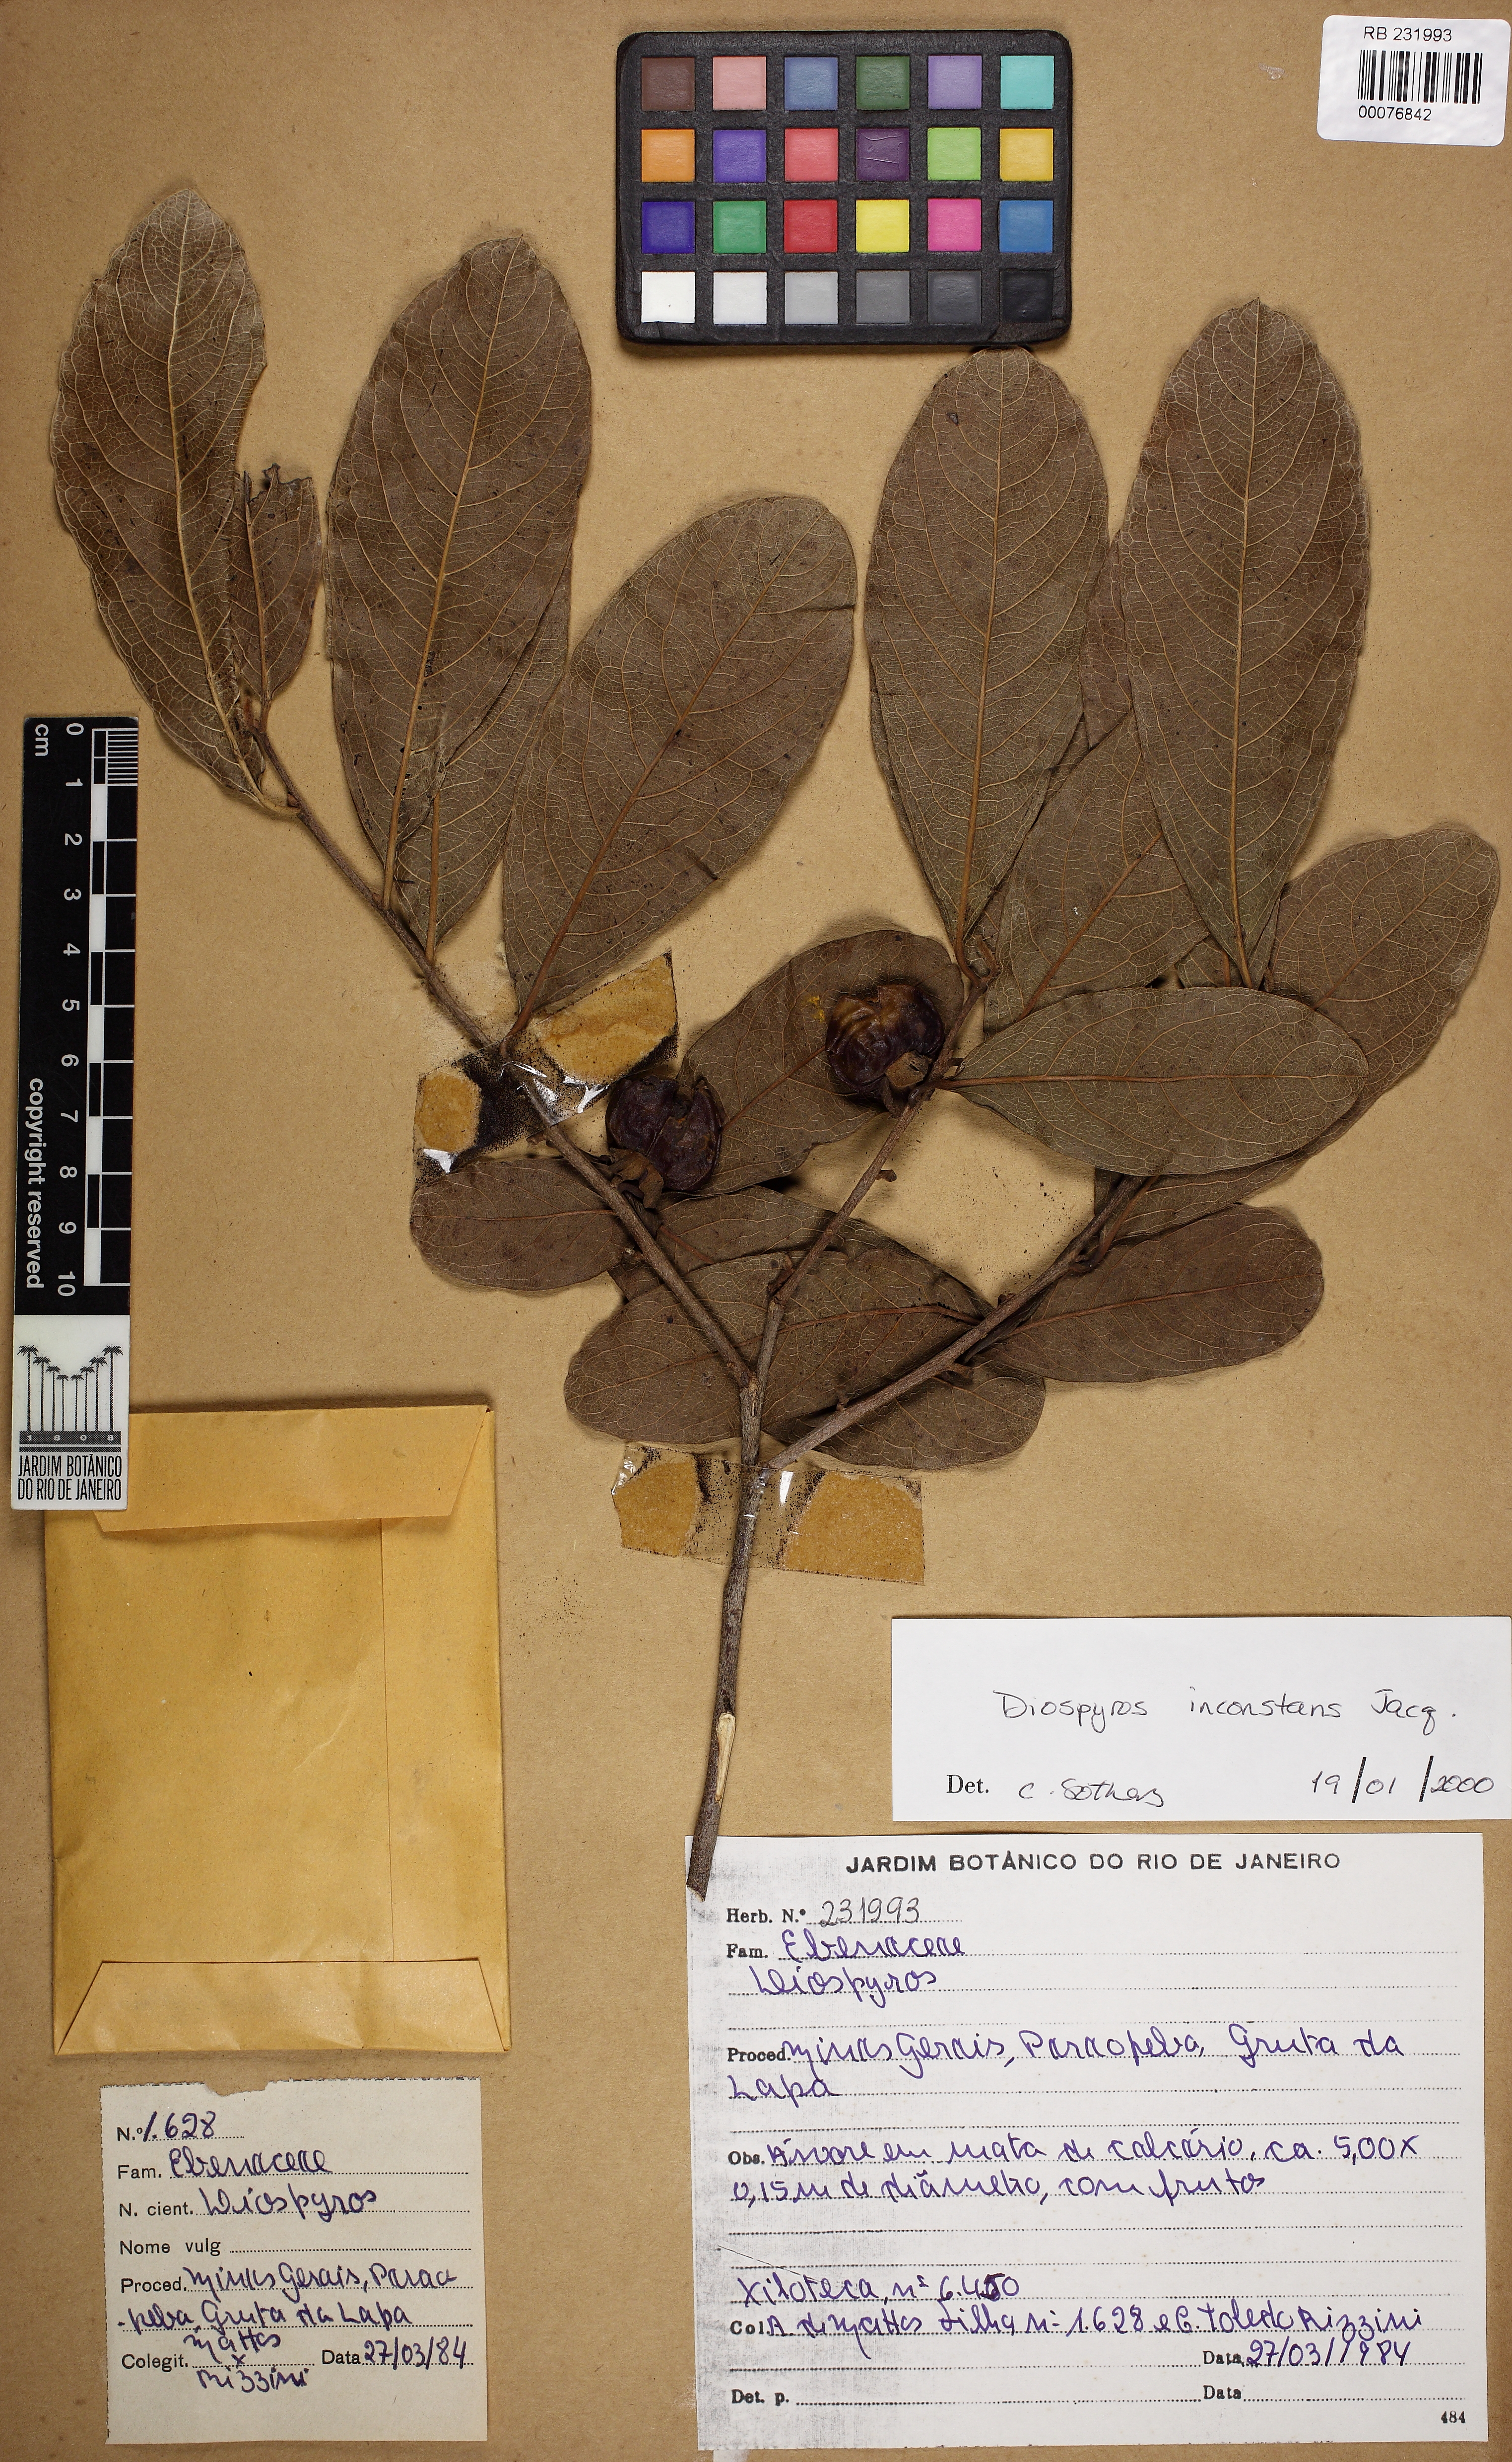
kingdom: Plantae
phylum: Tracheophyta
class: Magnoliopsida
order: Ericales
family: Ebenaceae
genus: Diospyros
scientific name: Diospyros inconstans
